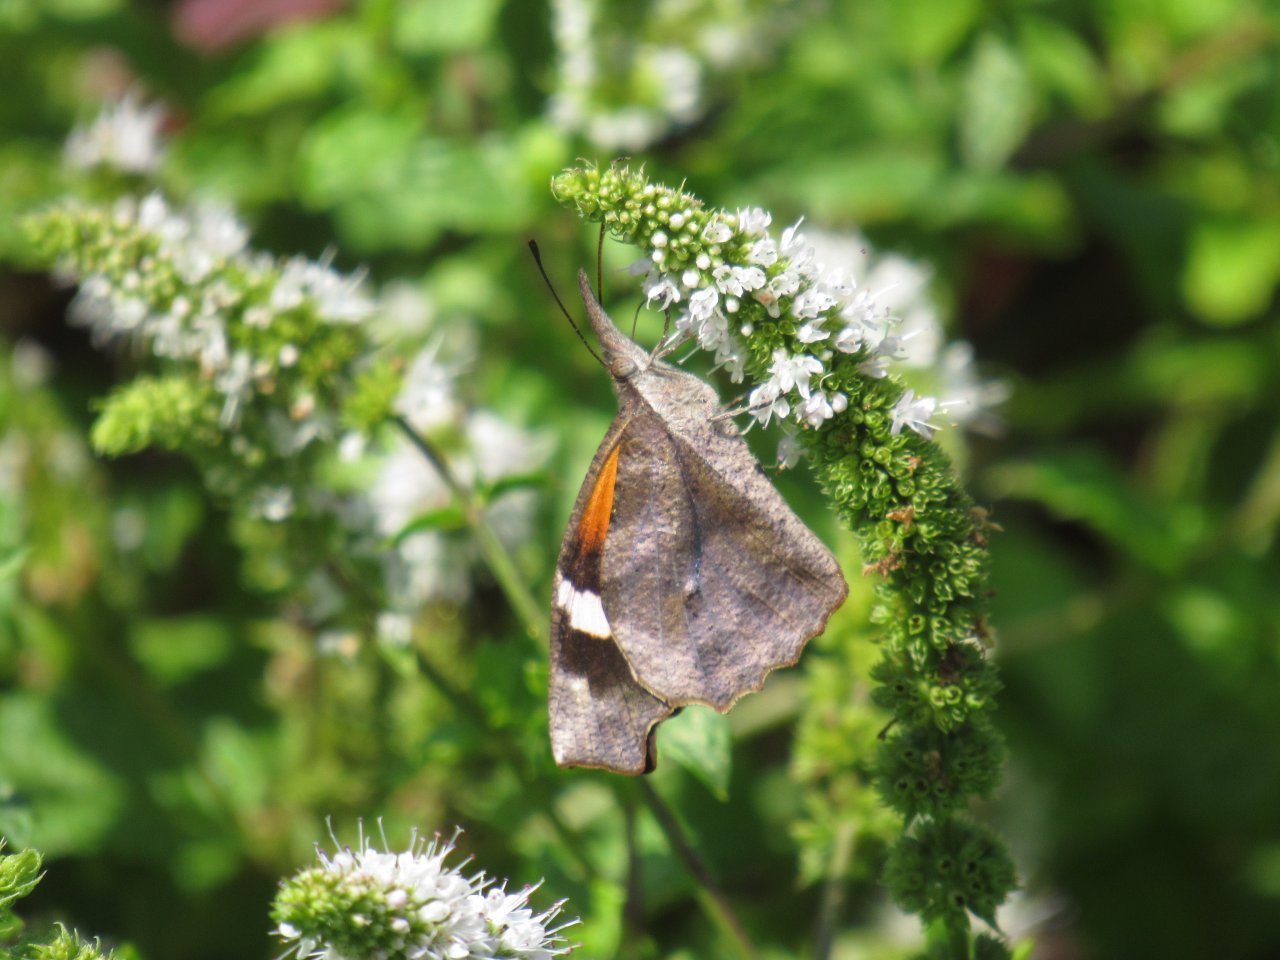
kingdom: Animalia
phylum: Arthropoda
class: Insecta
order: Lepidoptera
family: Nymphalidae
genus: Libytheana
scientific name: Libytheana carinenta
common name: American Snout
